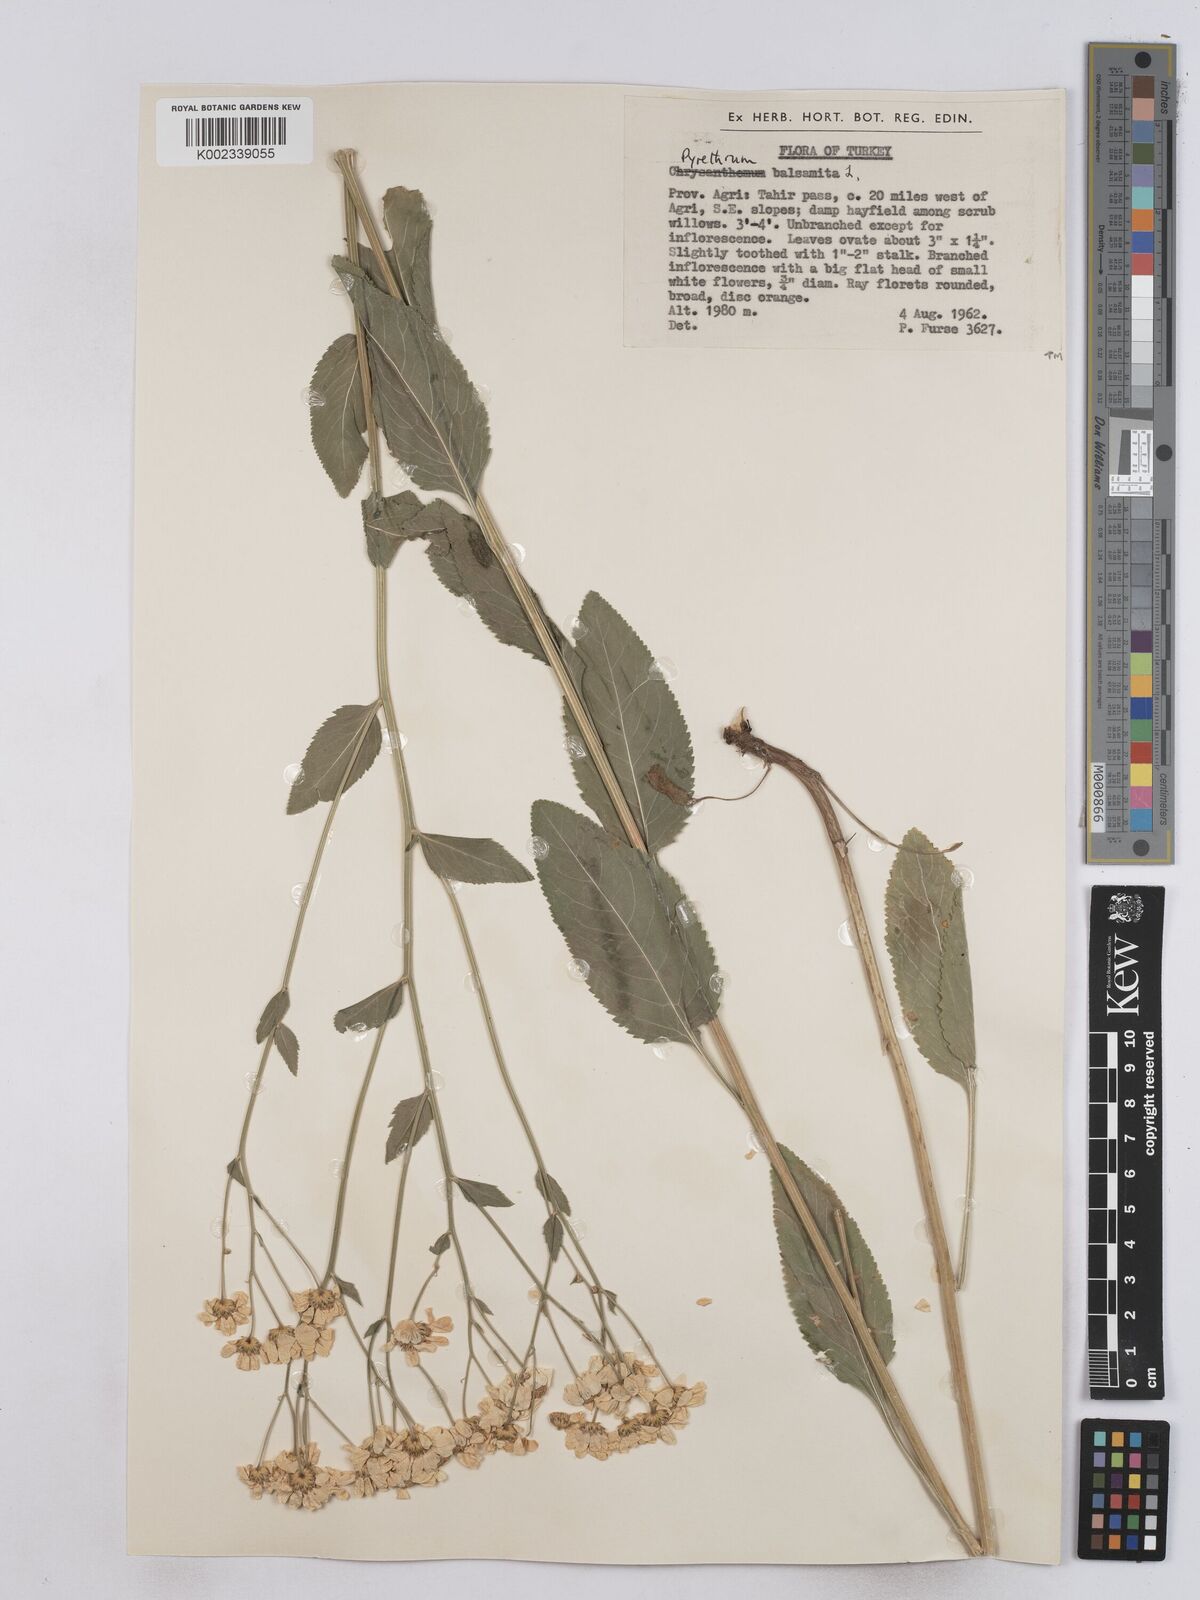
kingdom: Plantae
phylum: Tracheophyta
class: Magnoliopsida
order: Asterales
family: Asteraceae
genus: Tanacetum
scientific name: Tanacetum balsamita
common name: Costmary
